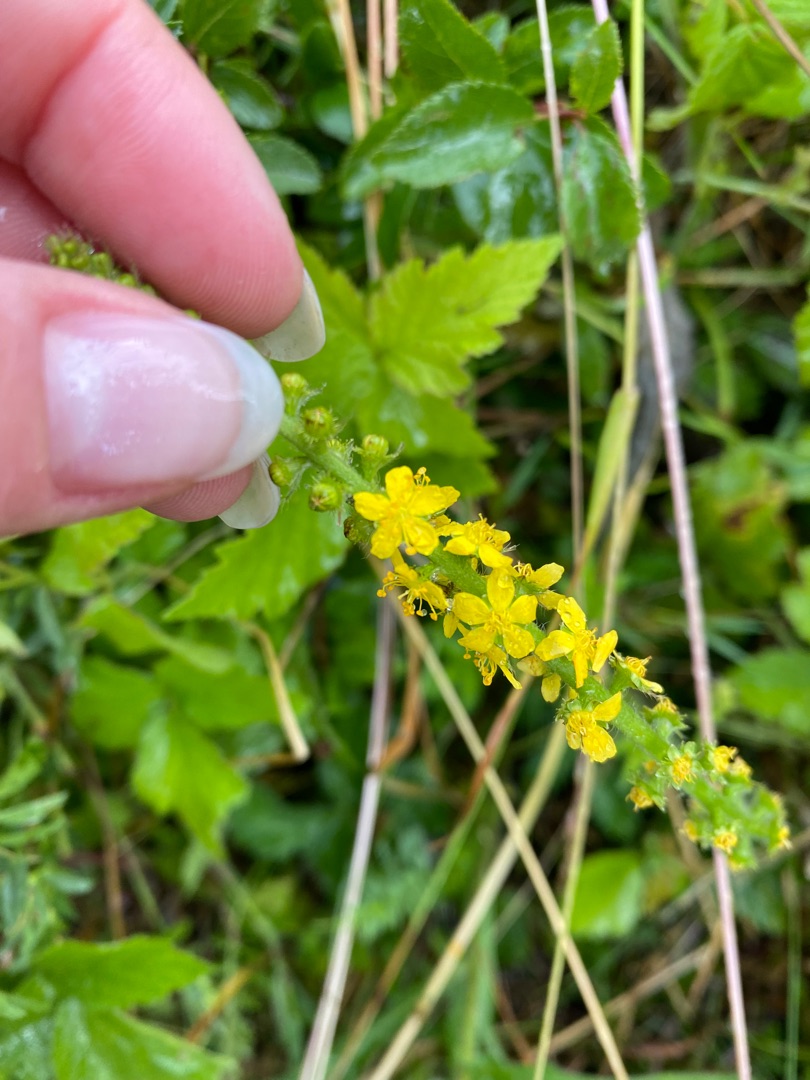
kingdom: Plantae
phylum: Tracheophyta
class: Magnoliopsida
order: Rosales
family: Rosaceae
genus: Agrimonia
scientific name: Agrimonia eupatoria
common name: Almindelig agermåne
